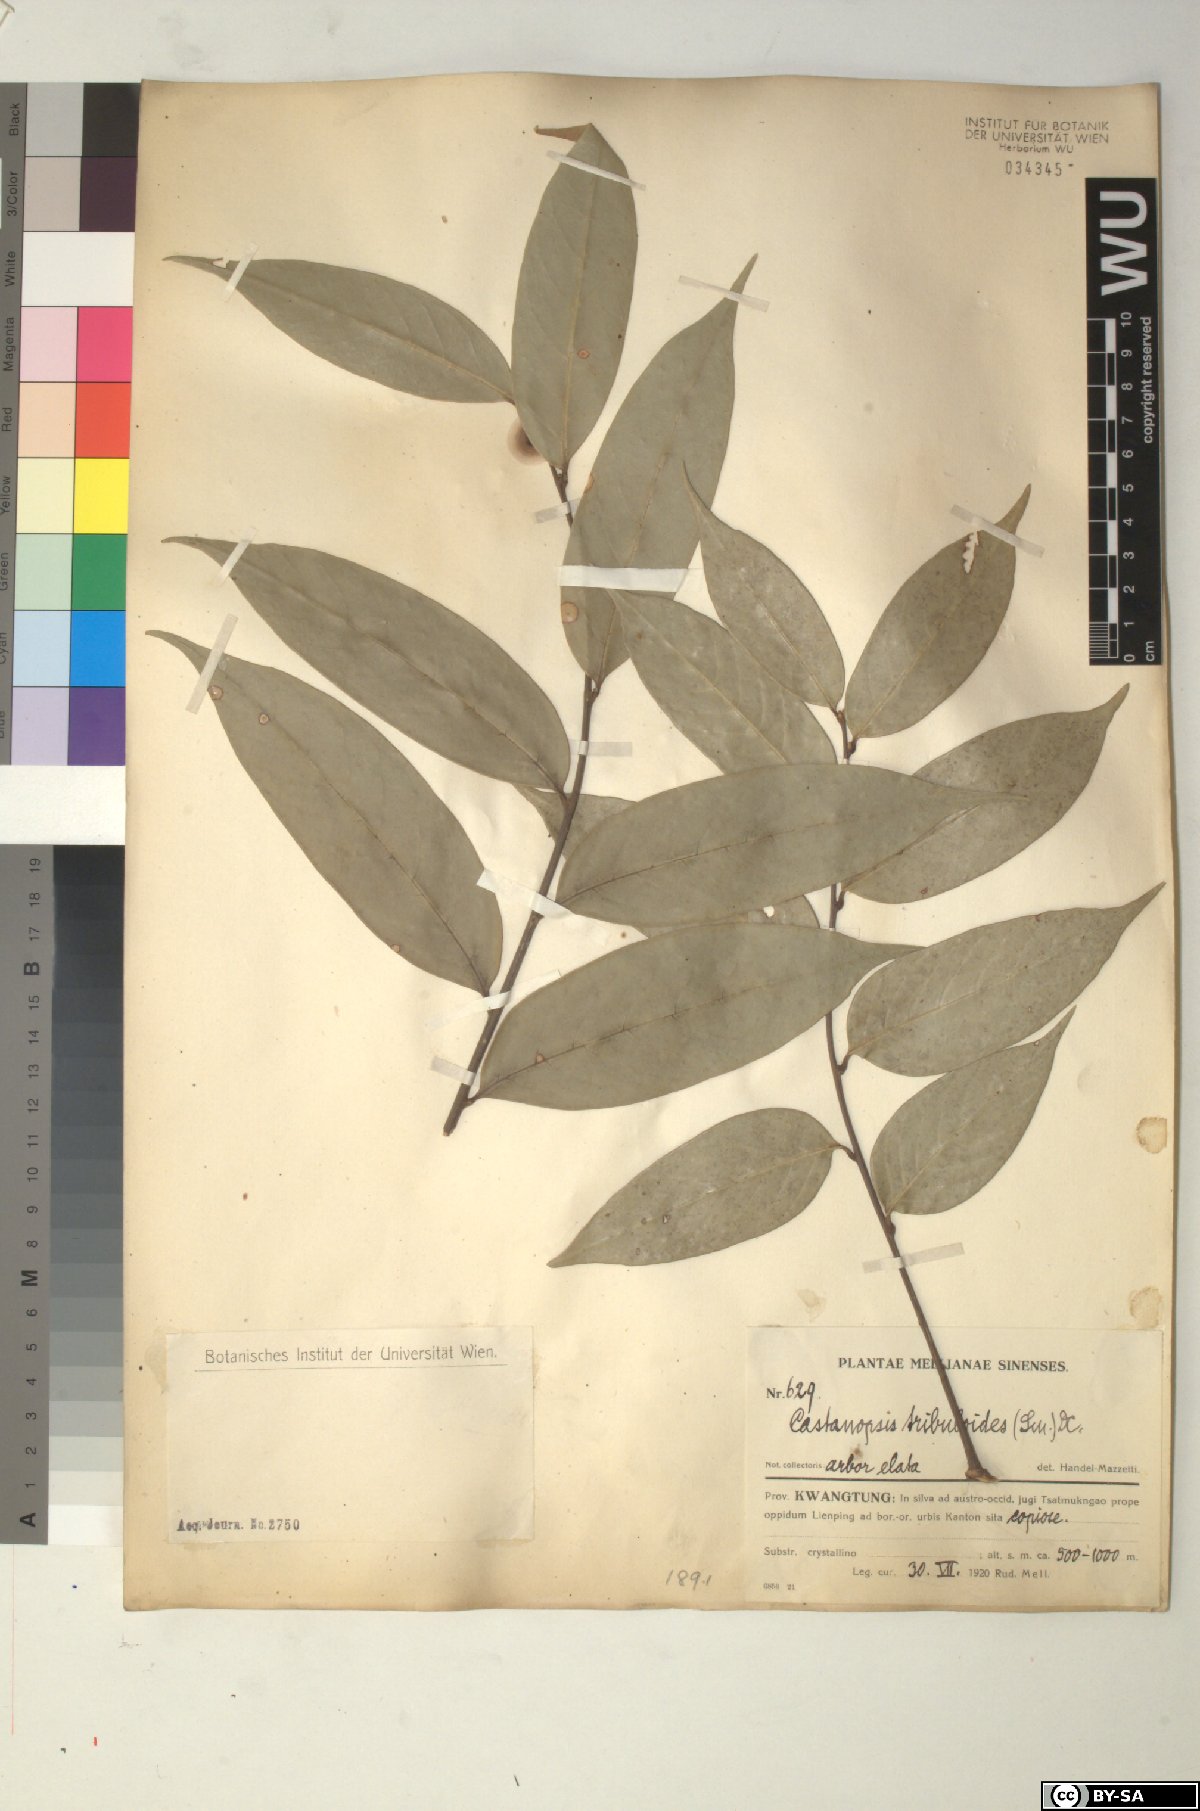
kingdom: Plantae
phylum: Tracheophyta
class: Magnoliopsida
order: Fagales
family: Fagaceae
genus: Castanopsis
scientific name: Castanopsis tribuloides
